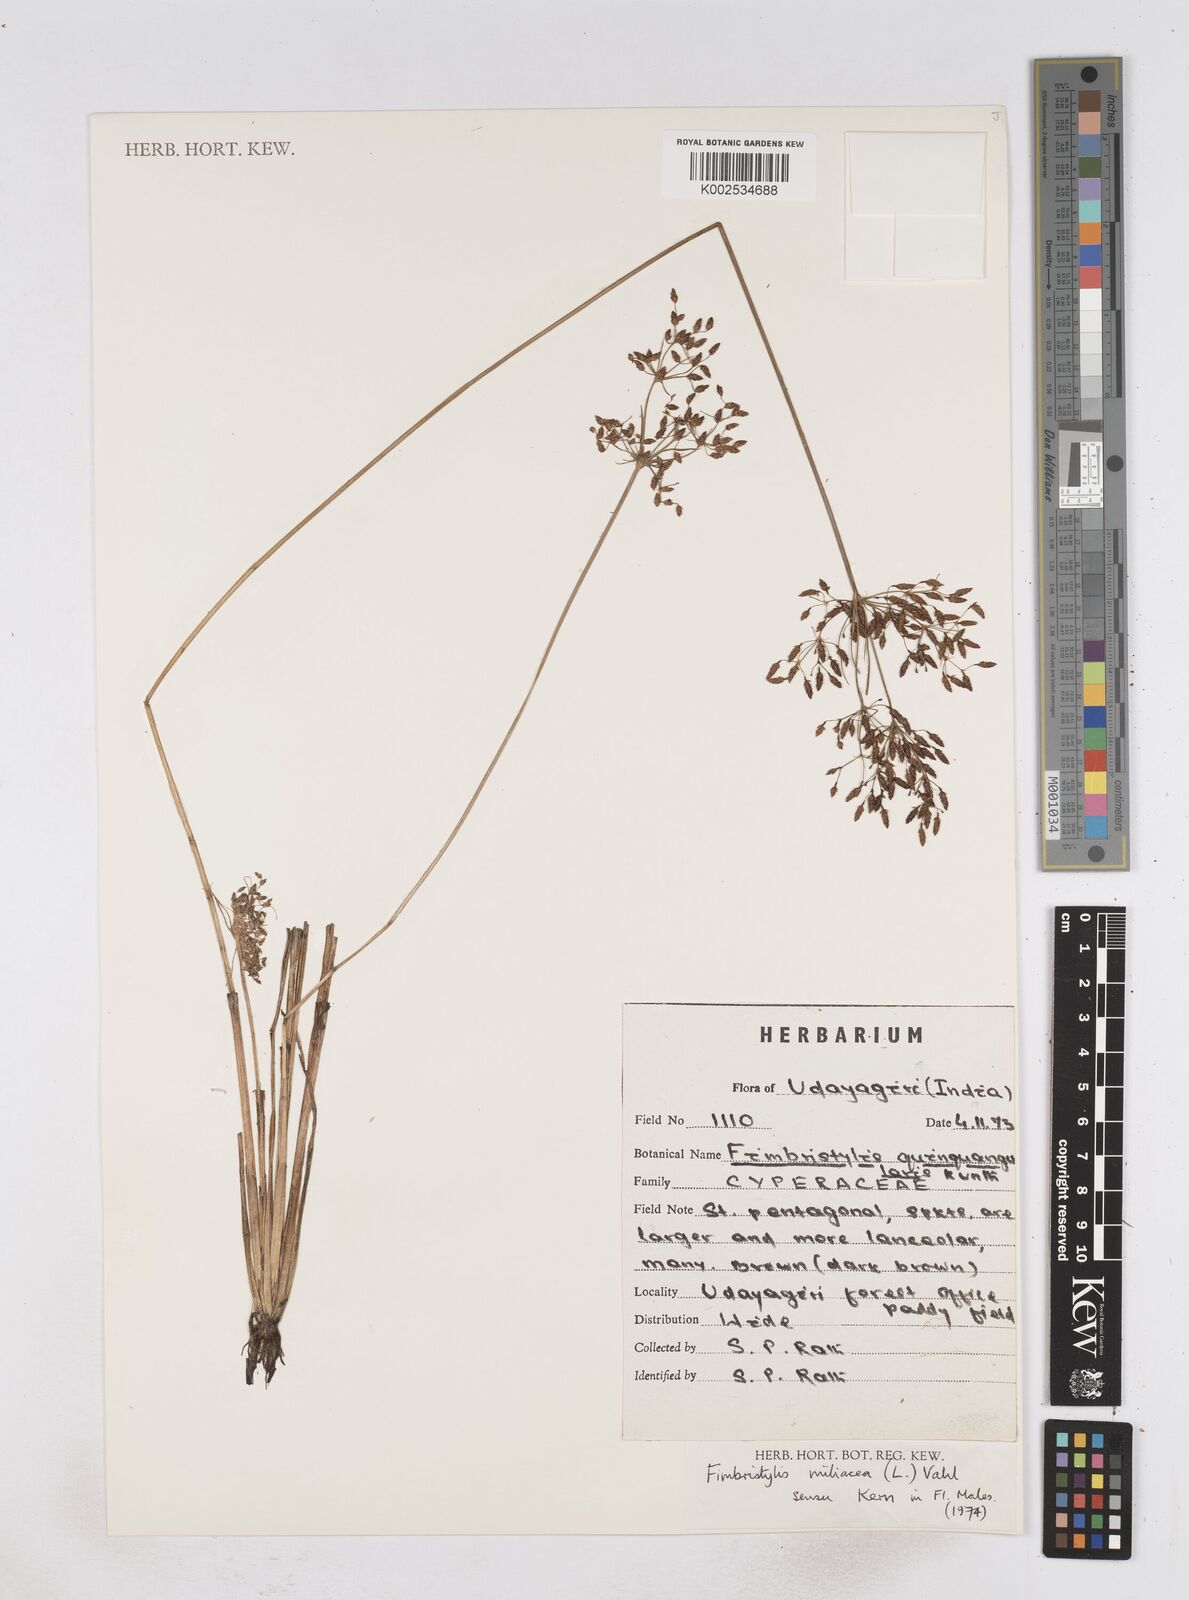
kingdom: Plantae
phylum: Tracheophyta
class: Liliopsida
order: Poales
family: Cyperaceae
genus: Fimbristylis
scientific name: Fimbristylis littoralis
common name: Fimbry
